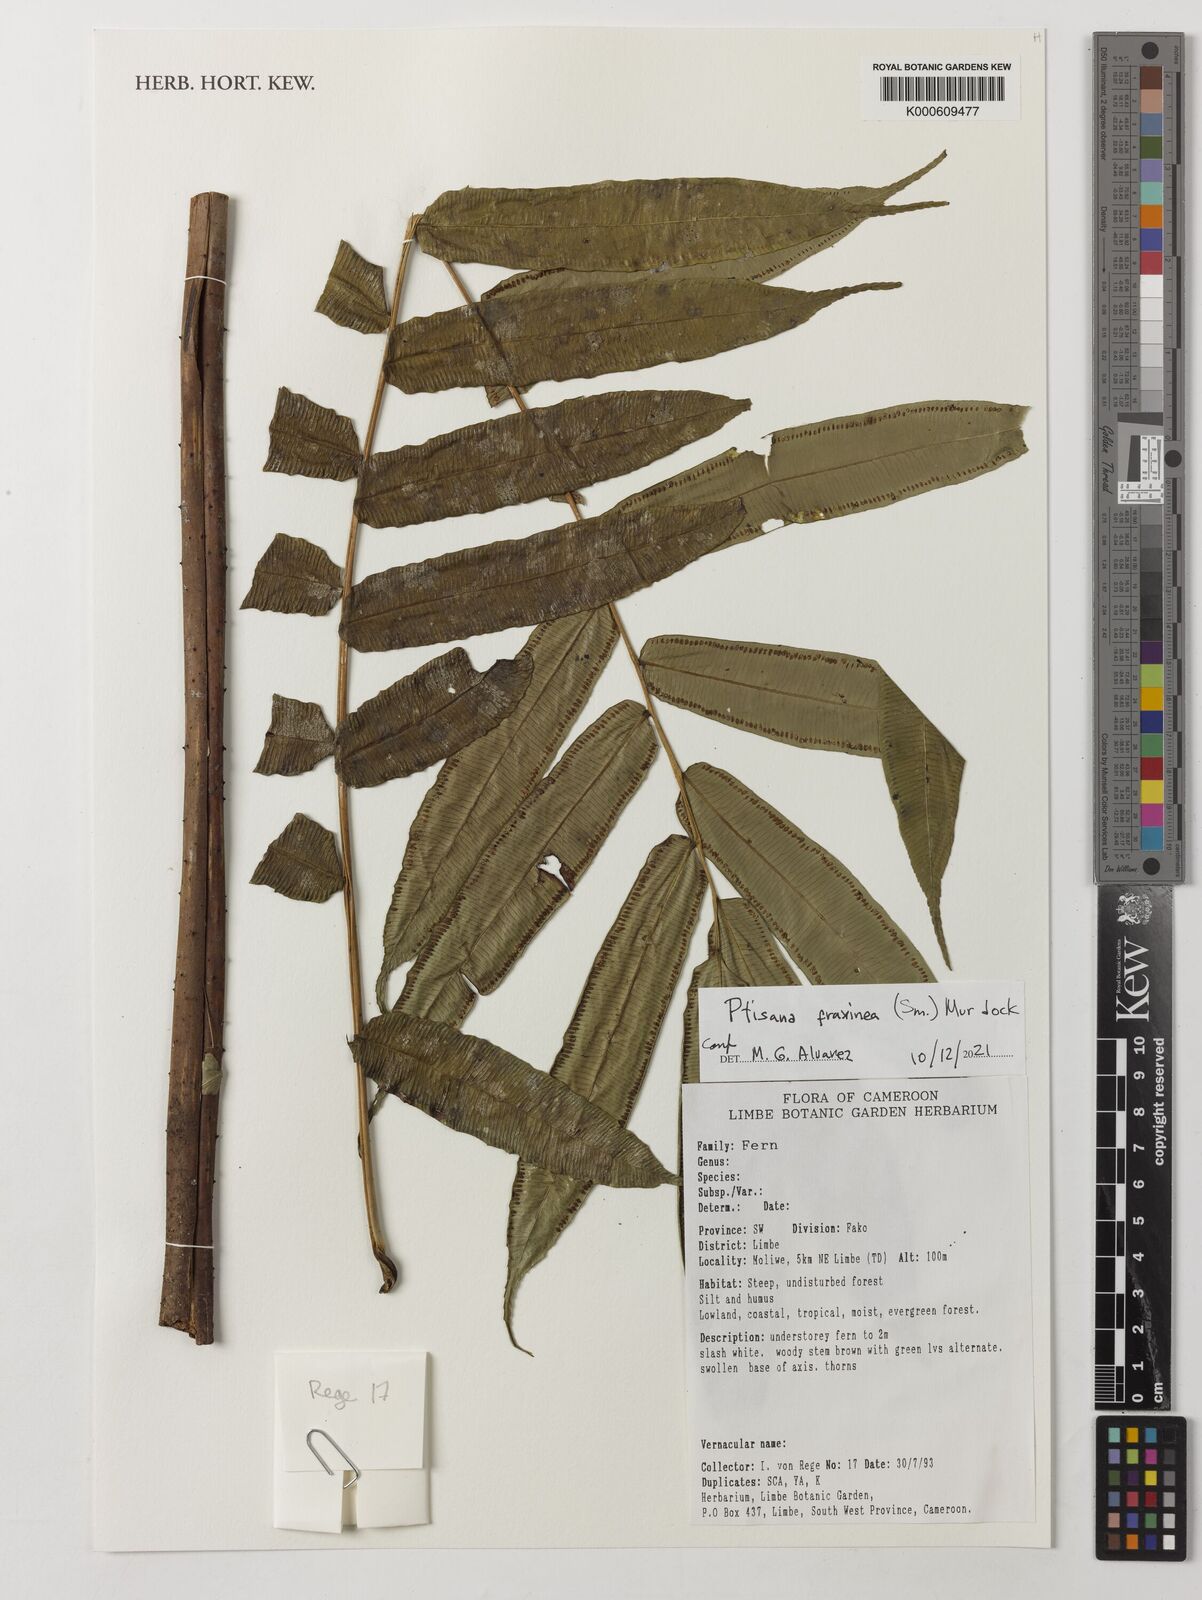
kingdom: Plantae
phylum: Tracheophyta
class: Polypodiopsida
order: Marattiales
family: Marattiaceae
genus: Ptisana
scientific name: Ptisana fraxinea
